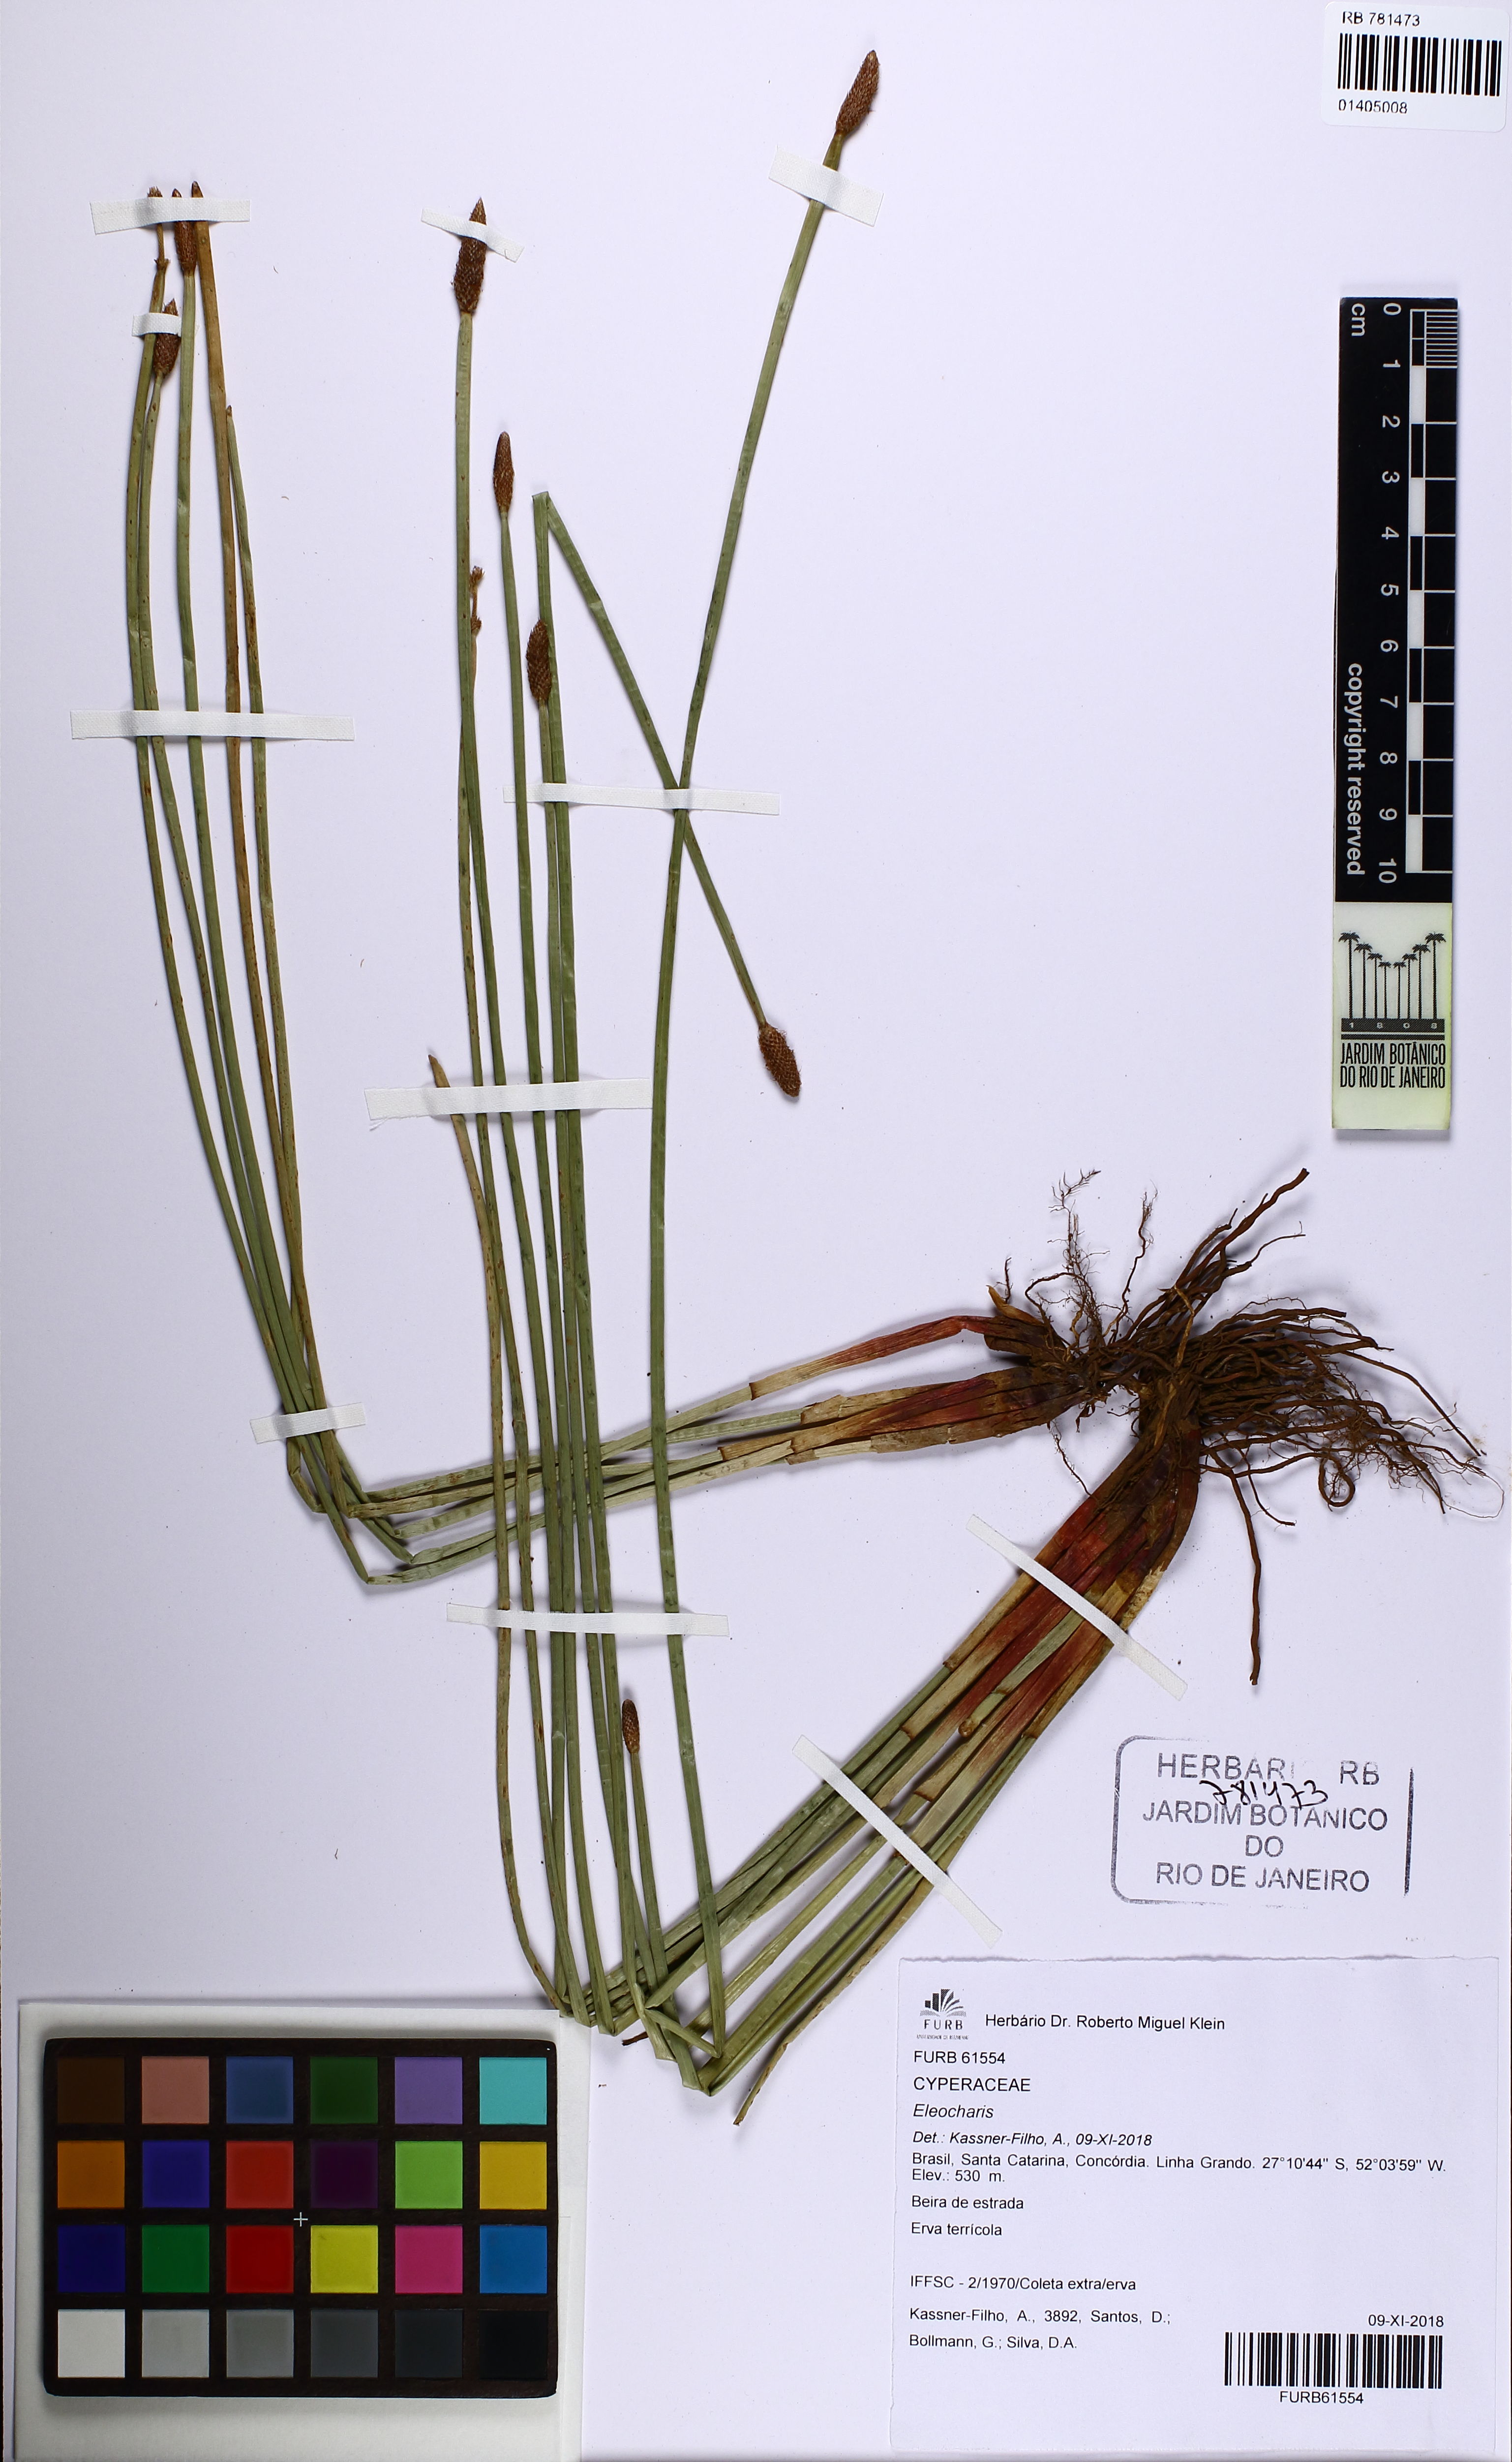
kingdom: Plantae
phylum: Tracheophyta
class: Liliopsida
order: Poales
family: Cyperaceae
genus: Eleocharis
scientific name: Eleocharis
